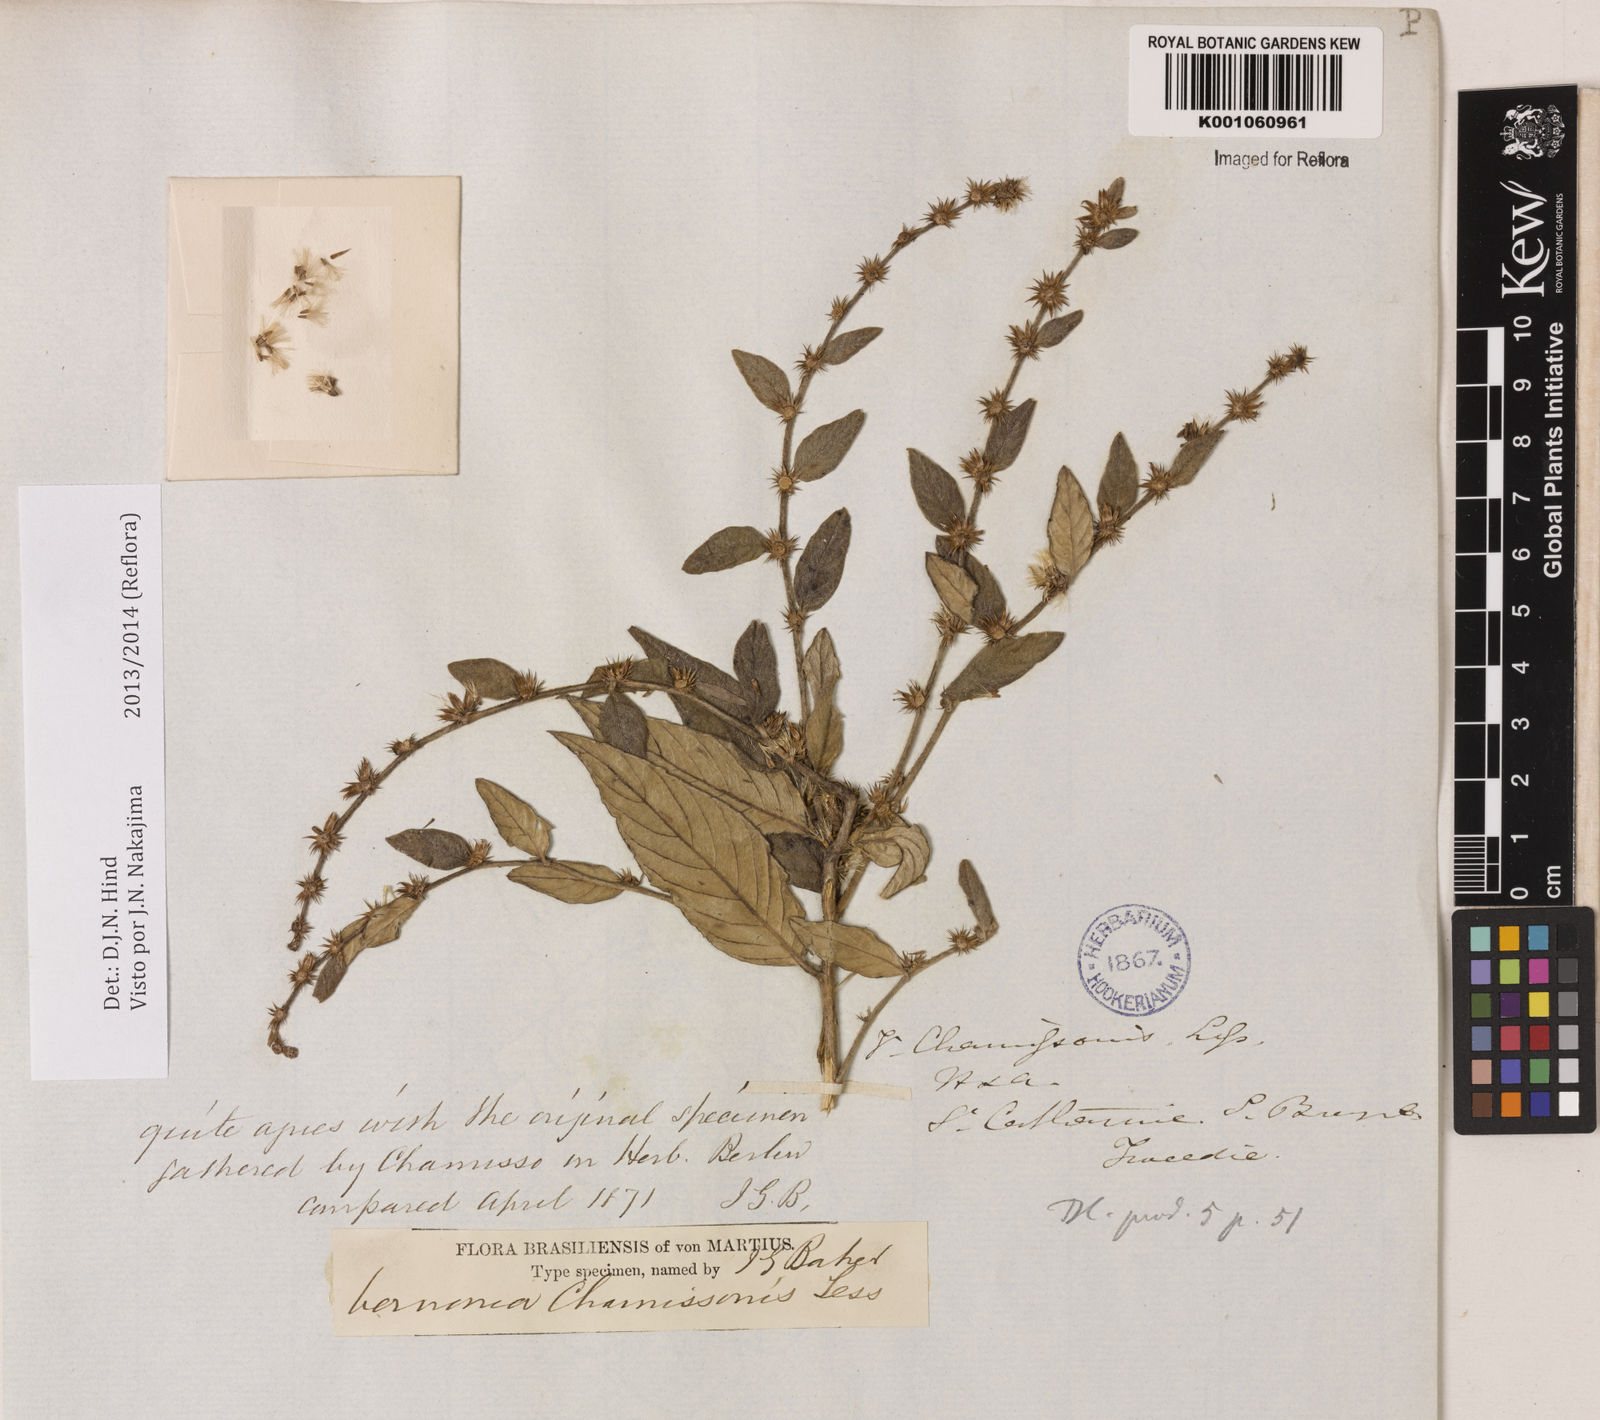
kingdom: Plantae
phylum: Tracheophyta
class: Magnoliopsida
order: Asterales
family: Asteraceae
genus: Lepidaploa
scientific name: Lepidaploa chamissonis
